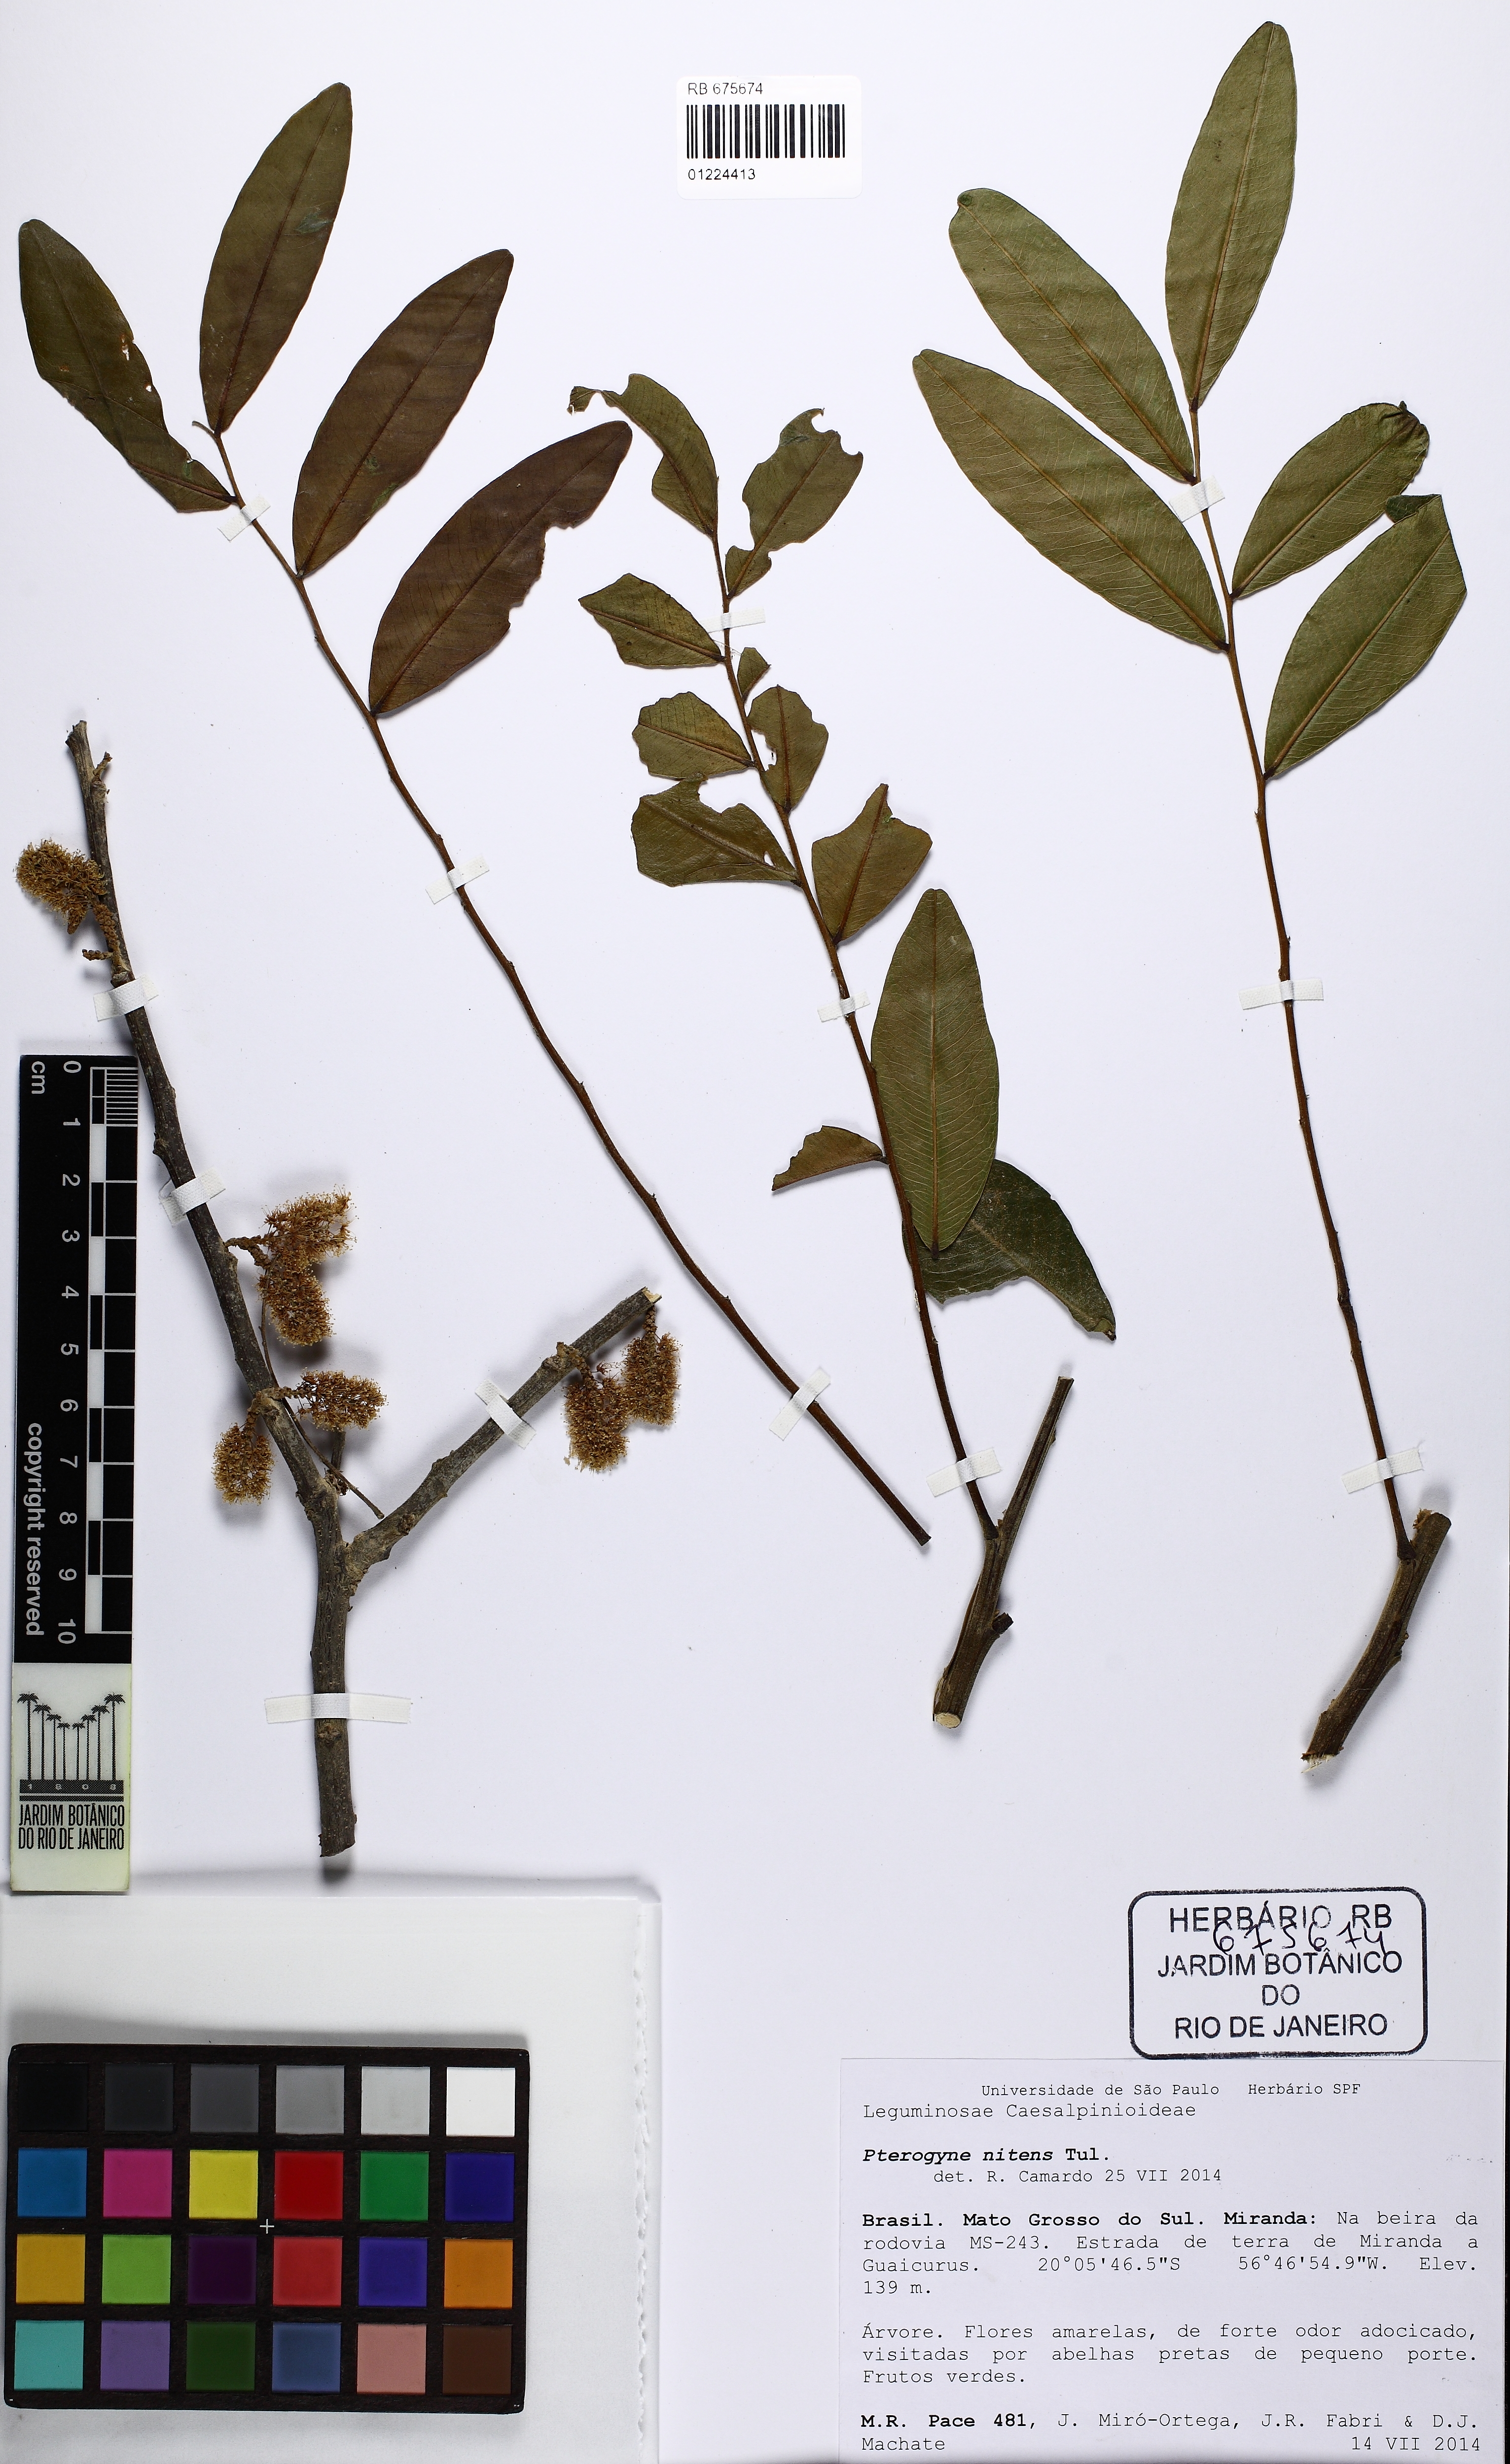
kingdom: Plantae
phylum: Tracheophyta
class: Magnoliopsida
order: Fabales
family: Fabaceae
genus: Pterogyne
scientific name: Pterogyne nitens
